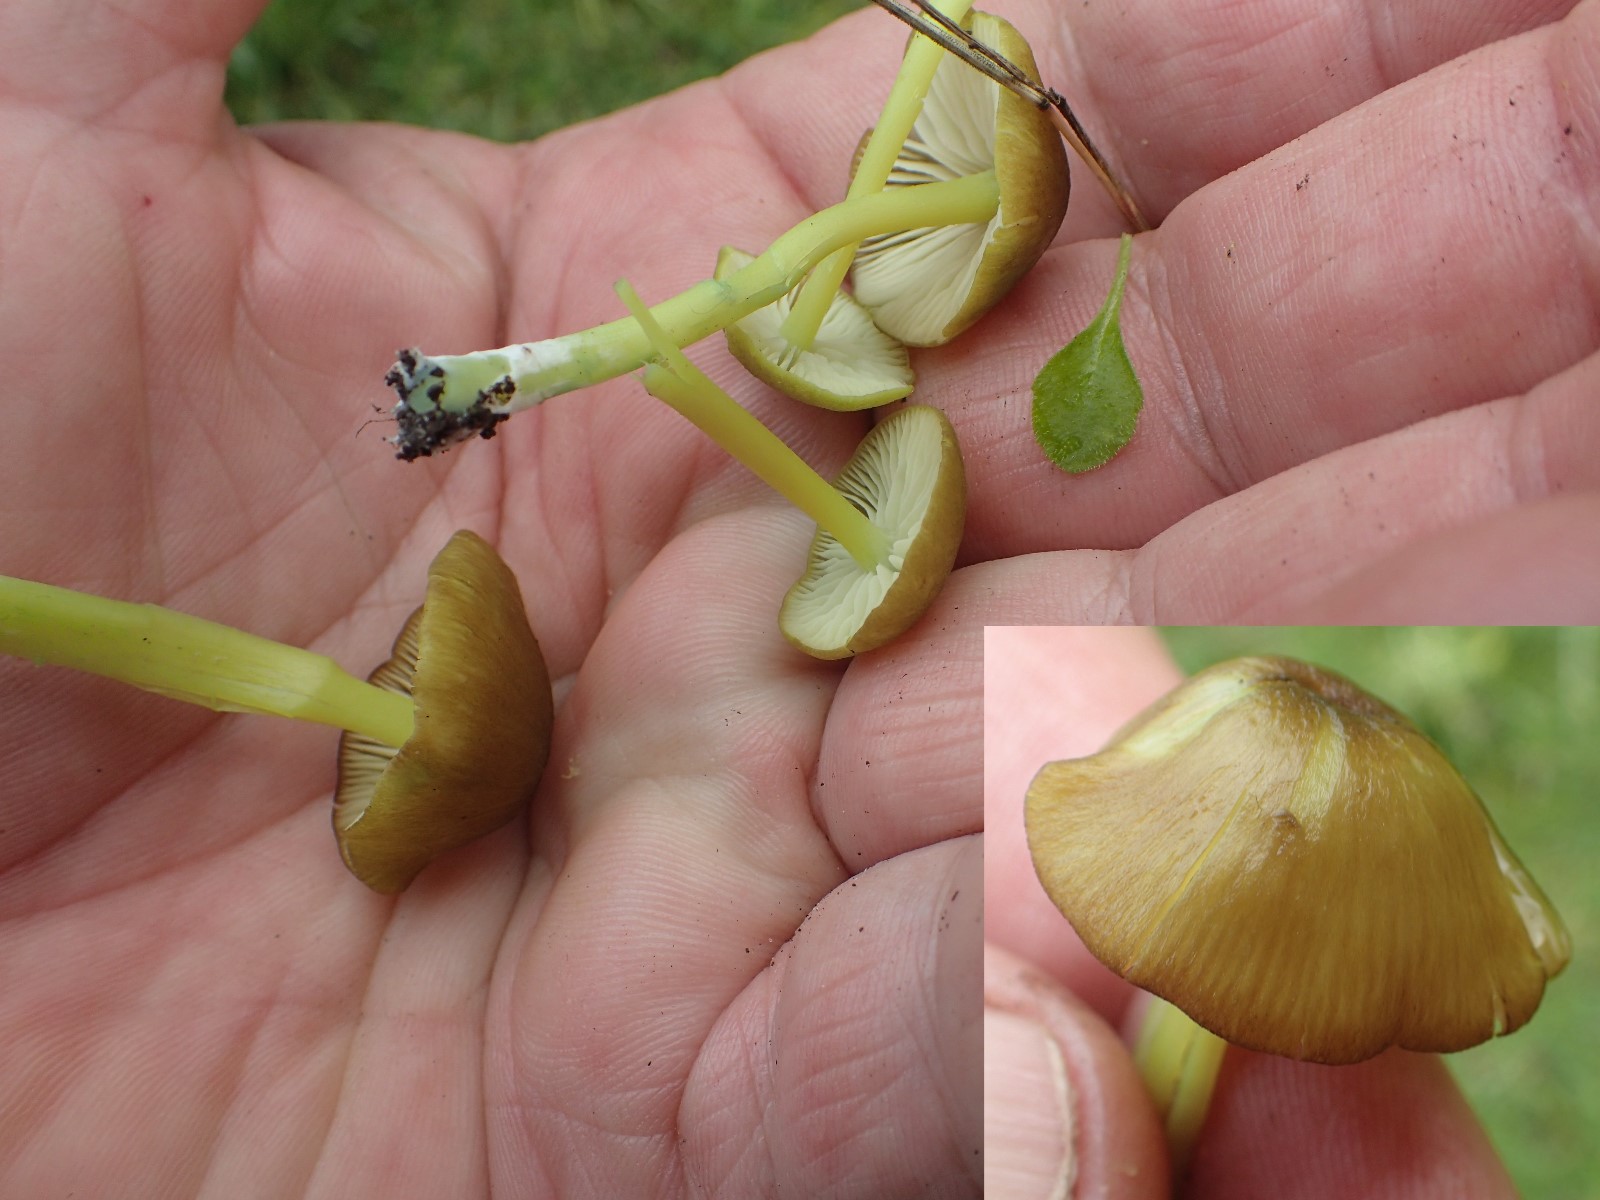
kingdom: Fungi
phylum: Basidiomycota
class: Agaricomycetes
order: Agaricales
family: Entolomataceae
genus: Entoloma
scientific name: Entoloma incanum
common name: grøngul rødblad
